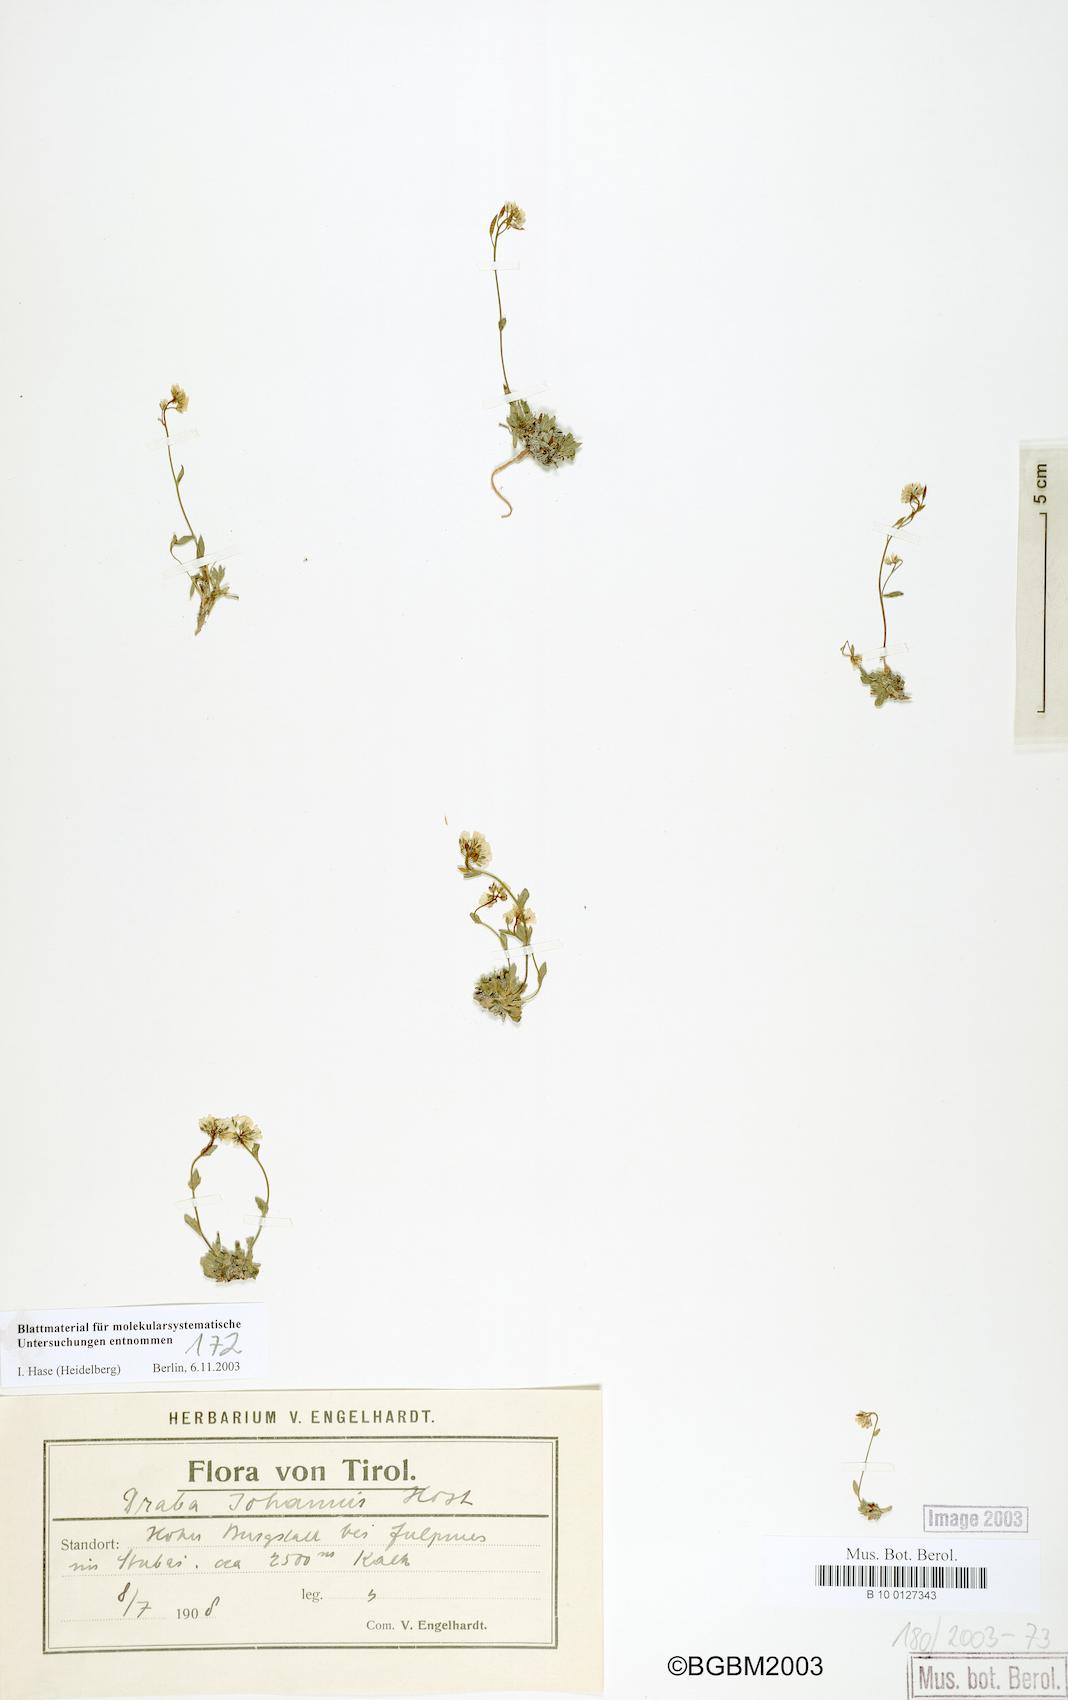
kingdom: Plantae
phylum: Tracheophyta
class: Magnoliopsida
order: Brassicales
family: Brassicaceae
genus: Draba
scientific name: Draba siliquosa
